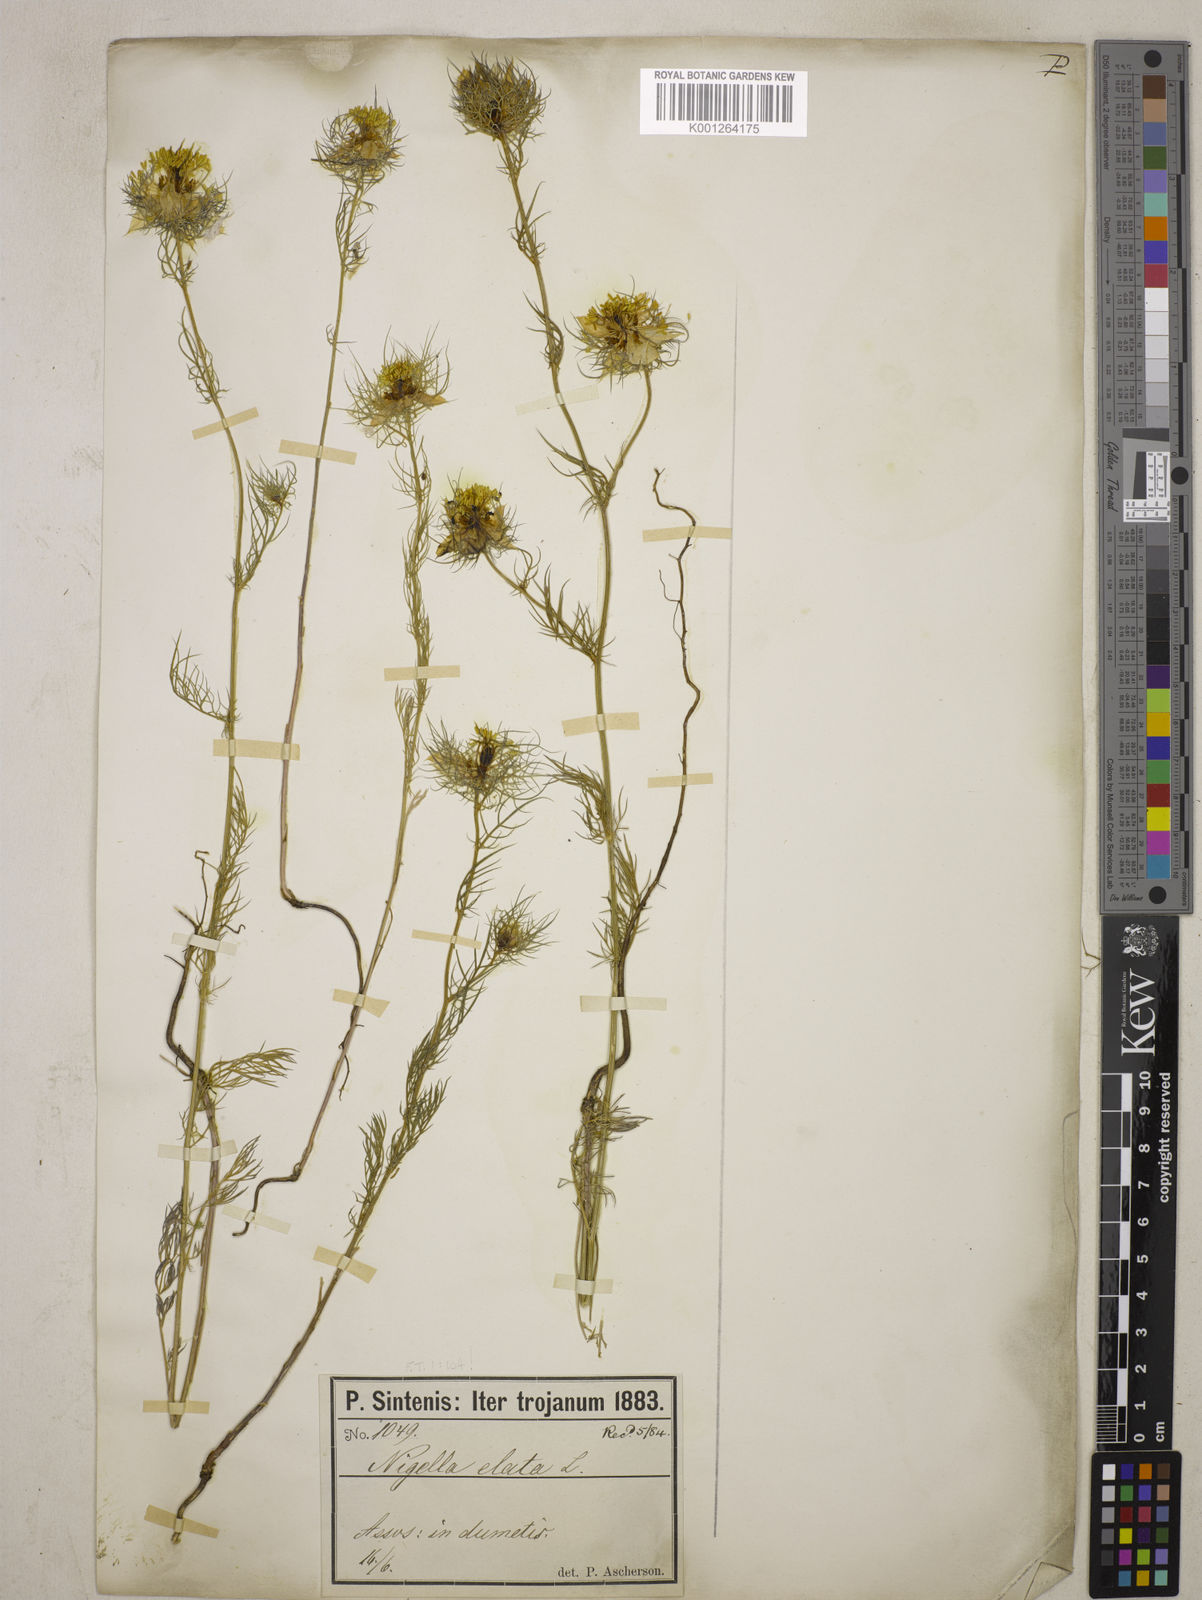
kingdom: Plantae
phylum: Tracheophyta
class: Magnoliopsida
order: Ranunculales
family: Ranunculaceae
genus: Nigella
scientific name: Nigella elata
